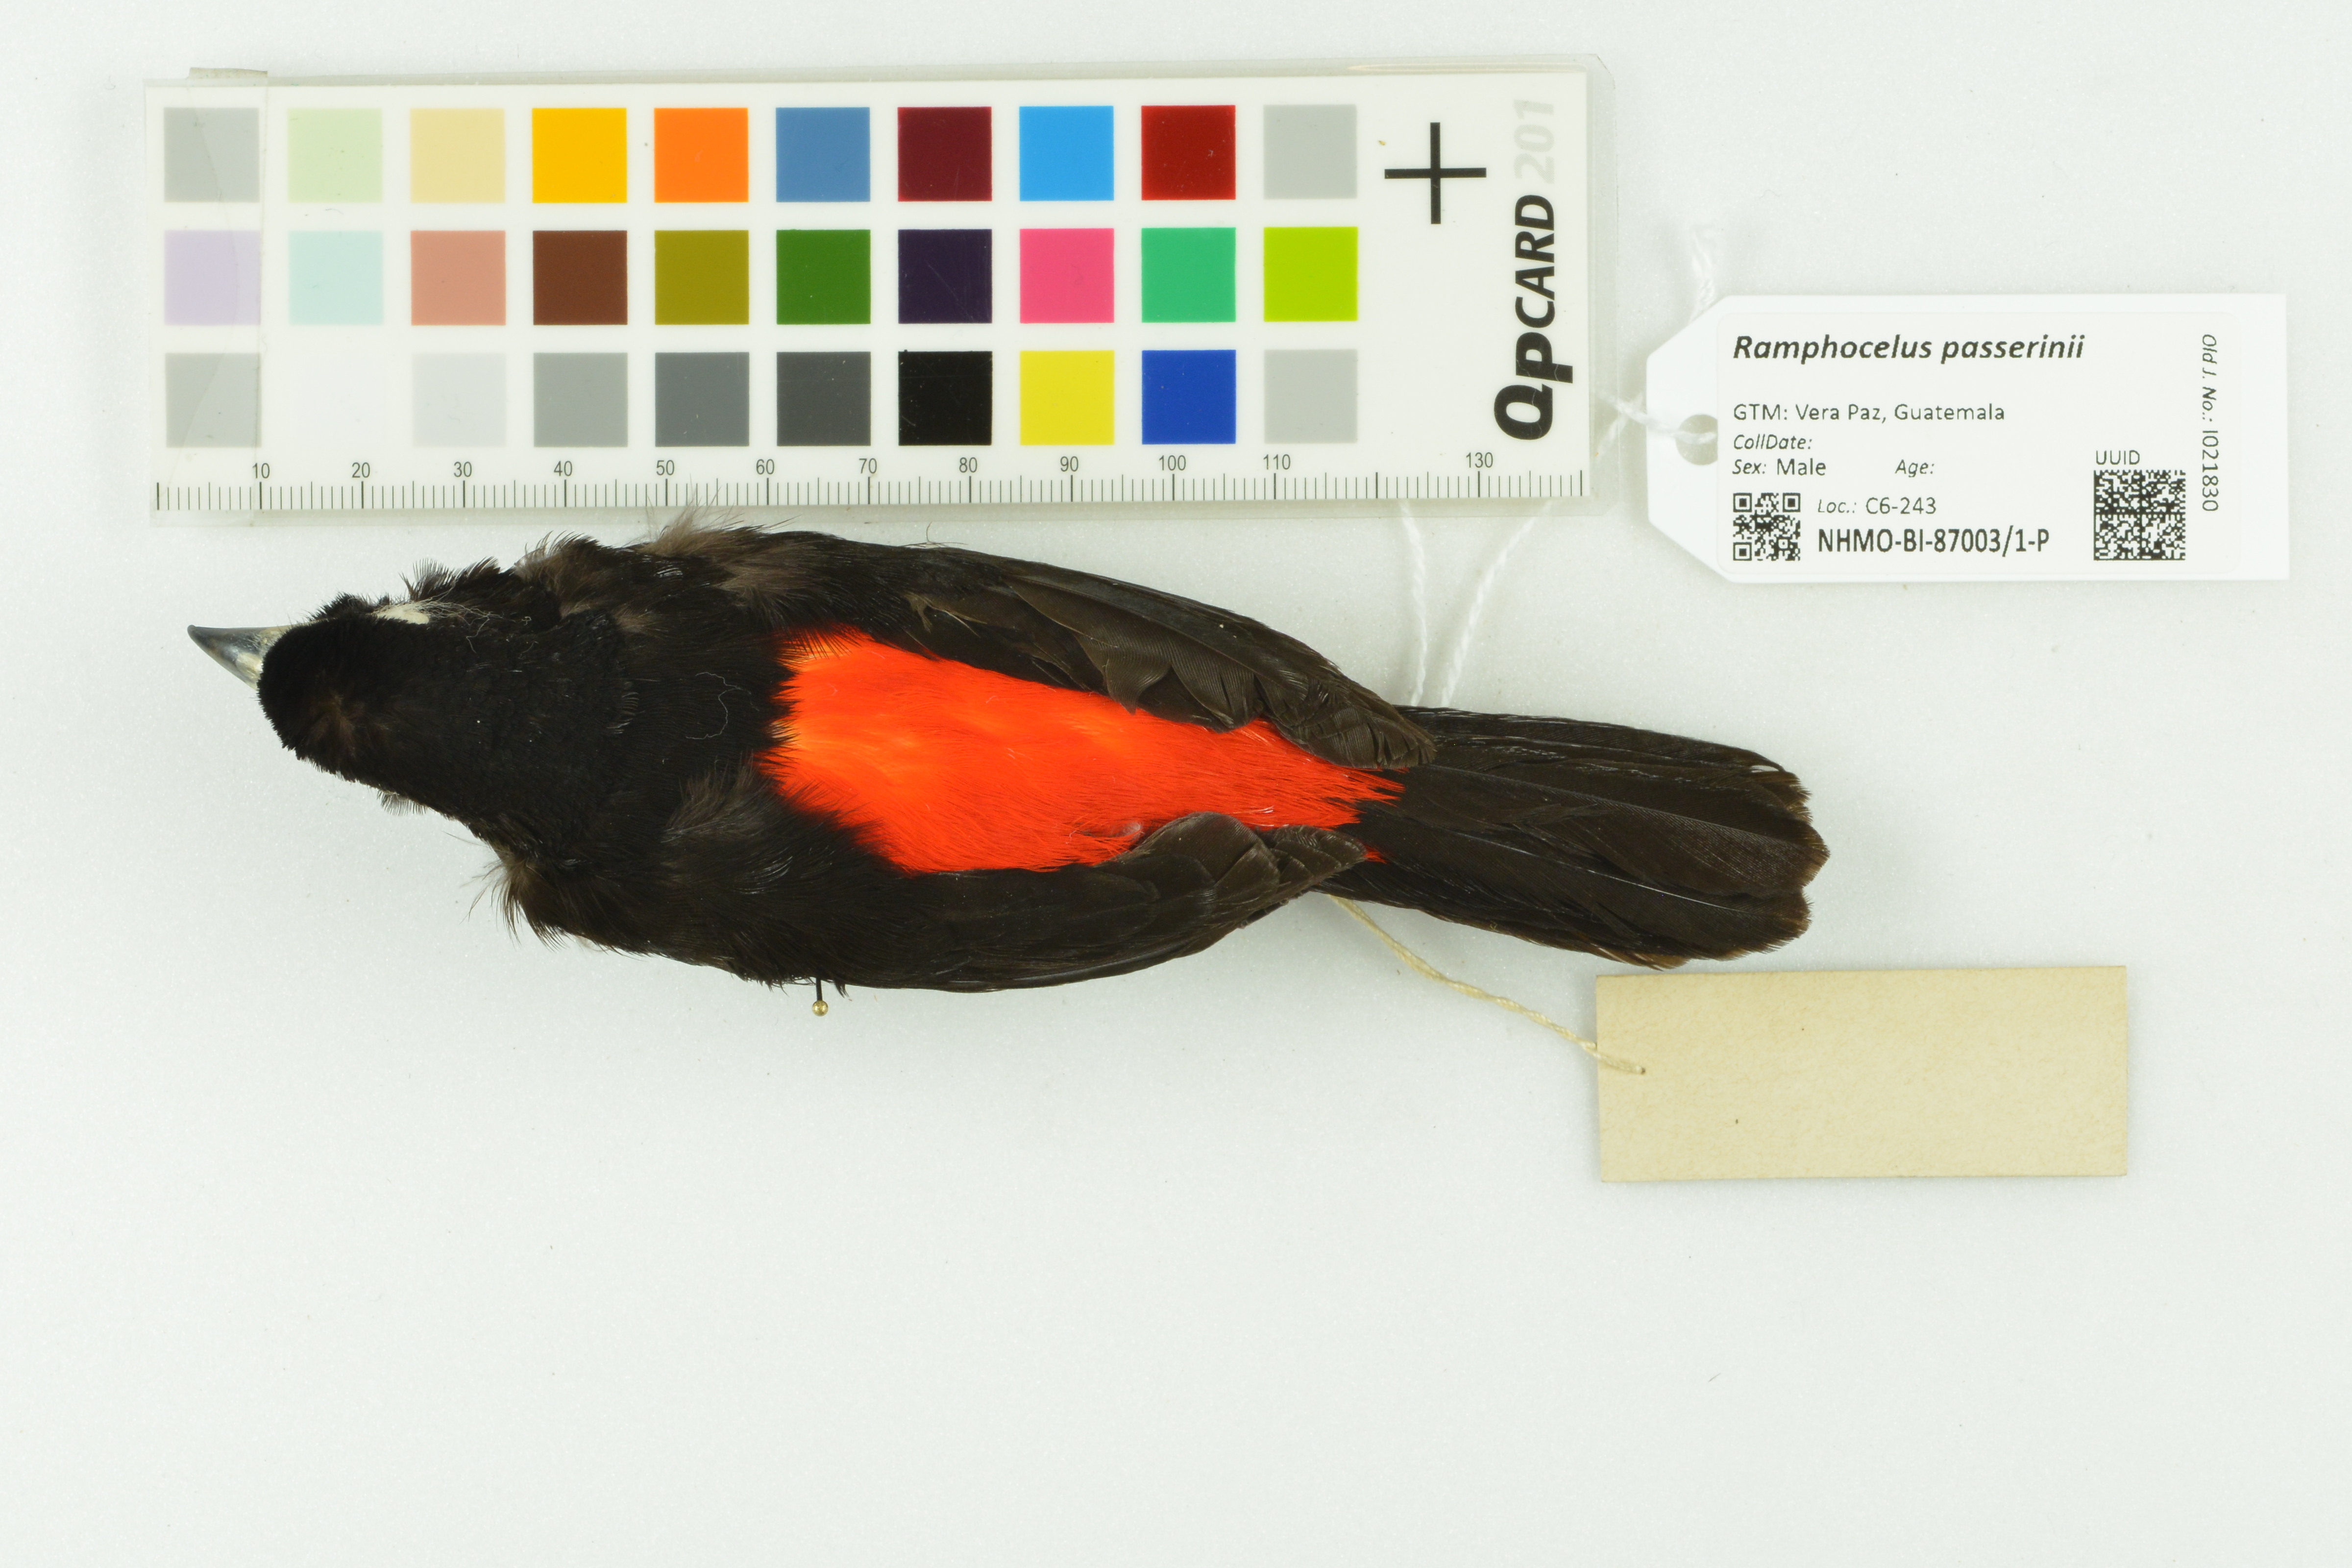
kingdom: Animalia
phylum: Chordata
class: Aves
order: Passeriformes
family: Thraupidae
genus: Ramphocelus
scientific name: Ramphocelus passerinii
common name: Passerini's tanager
